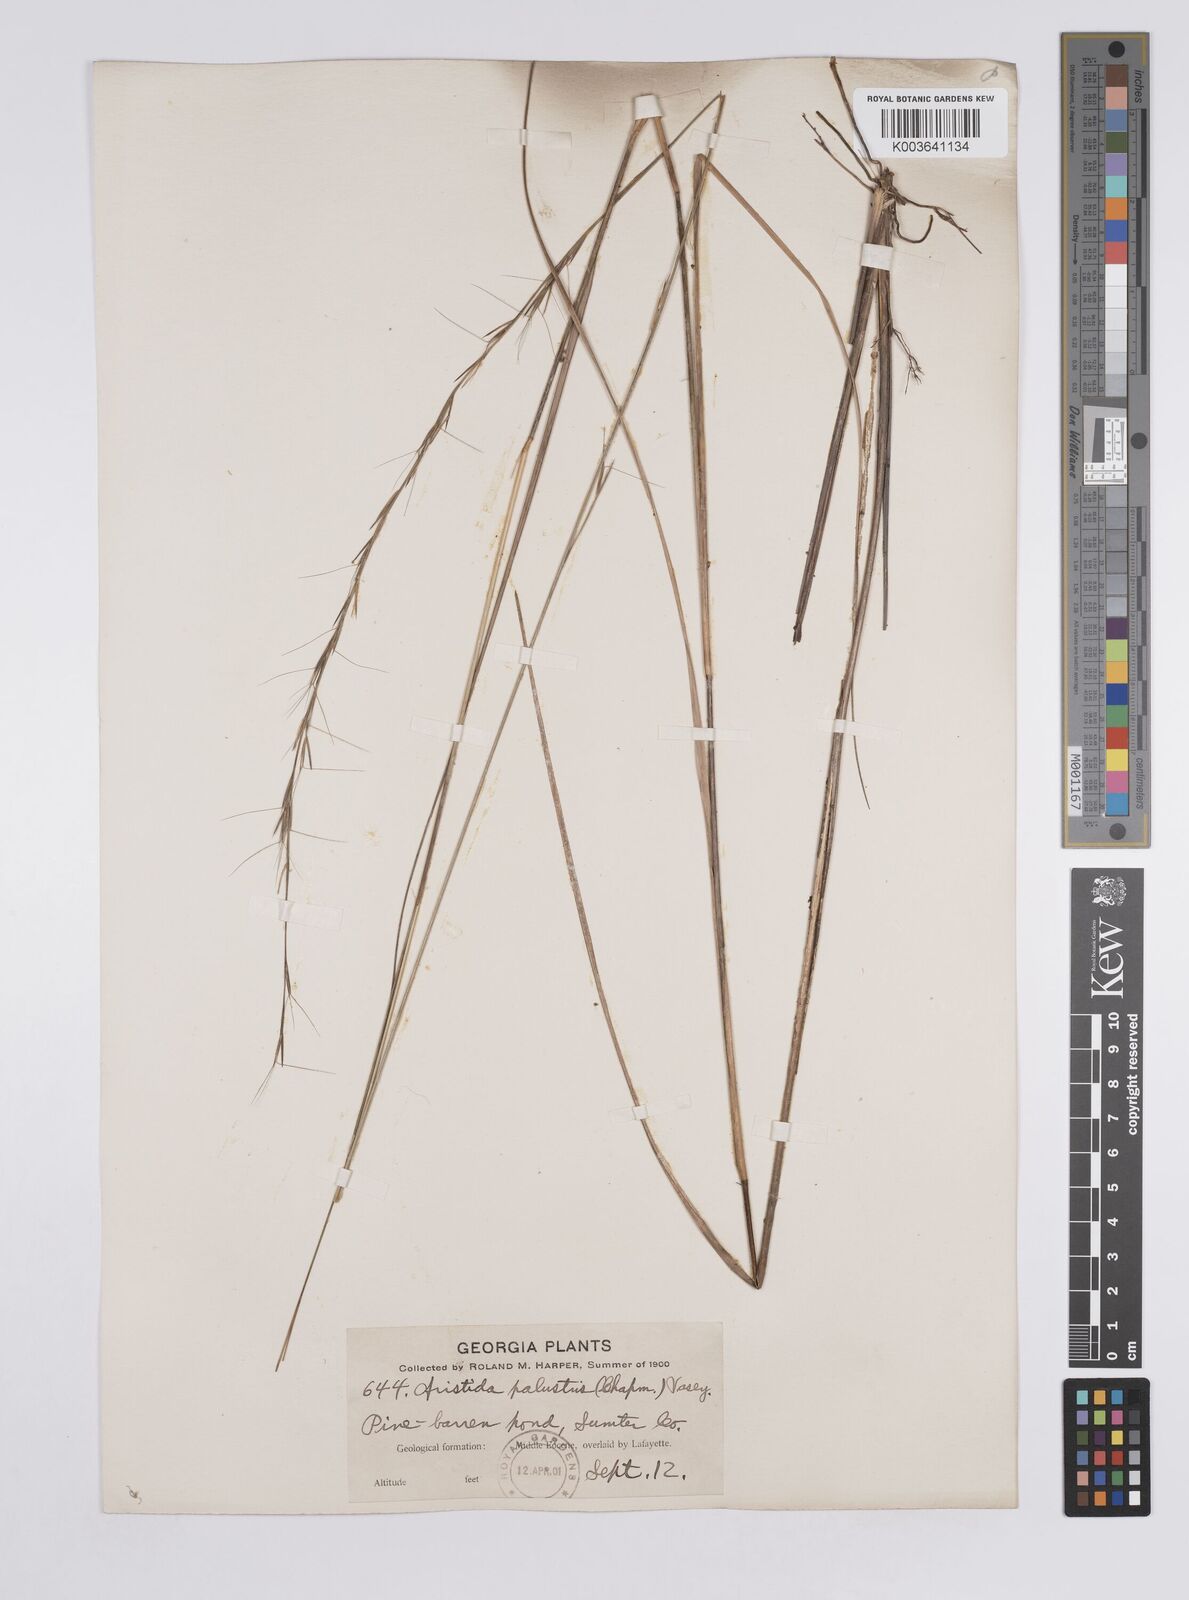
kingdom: Plantae
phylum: Tracheophyta
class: Liliopsida
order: Poales
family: Poaceae
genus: Aristida
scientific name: Aristida palustris
